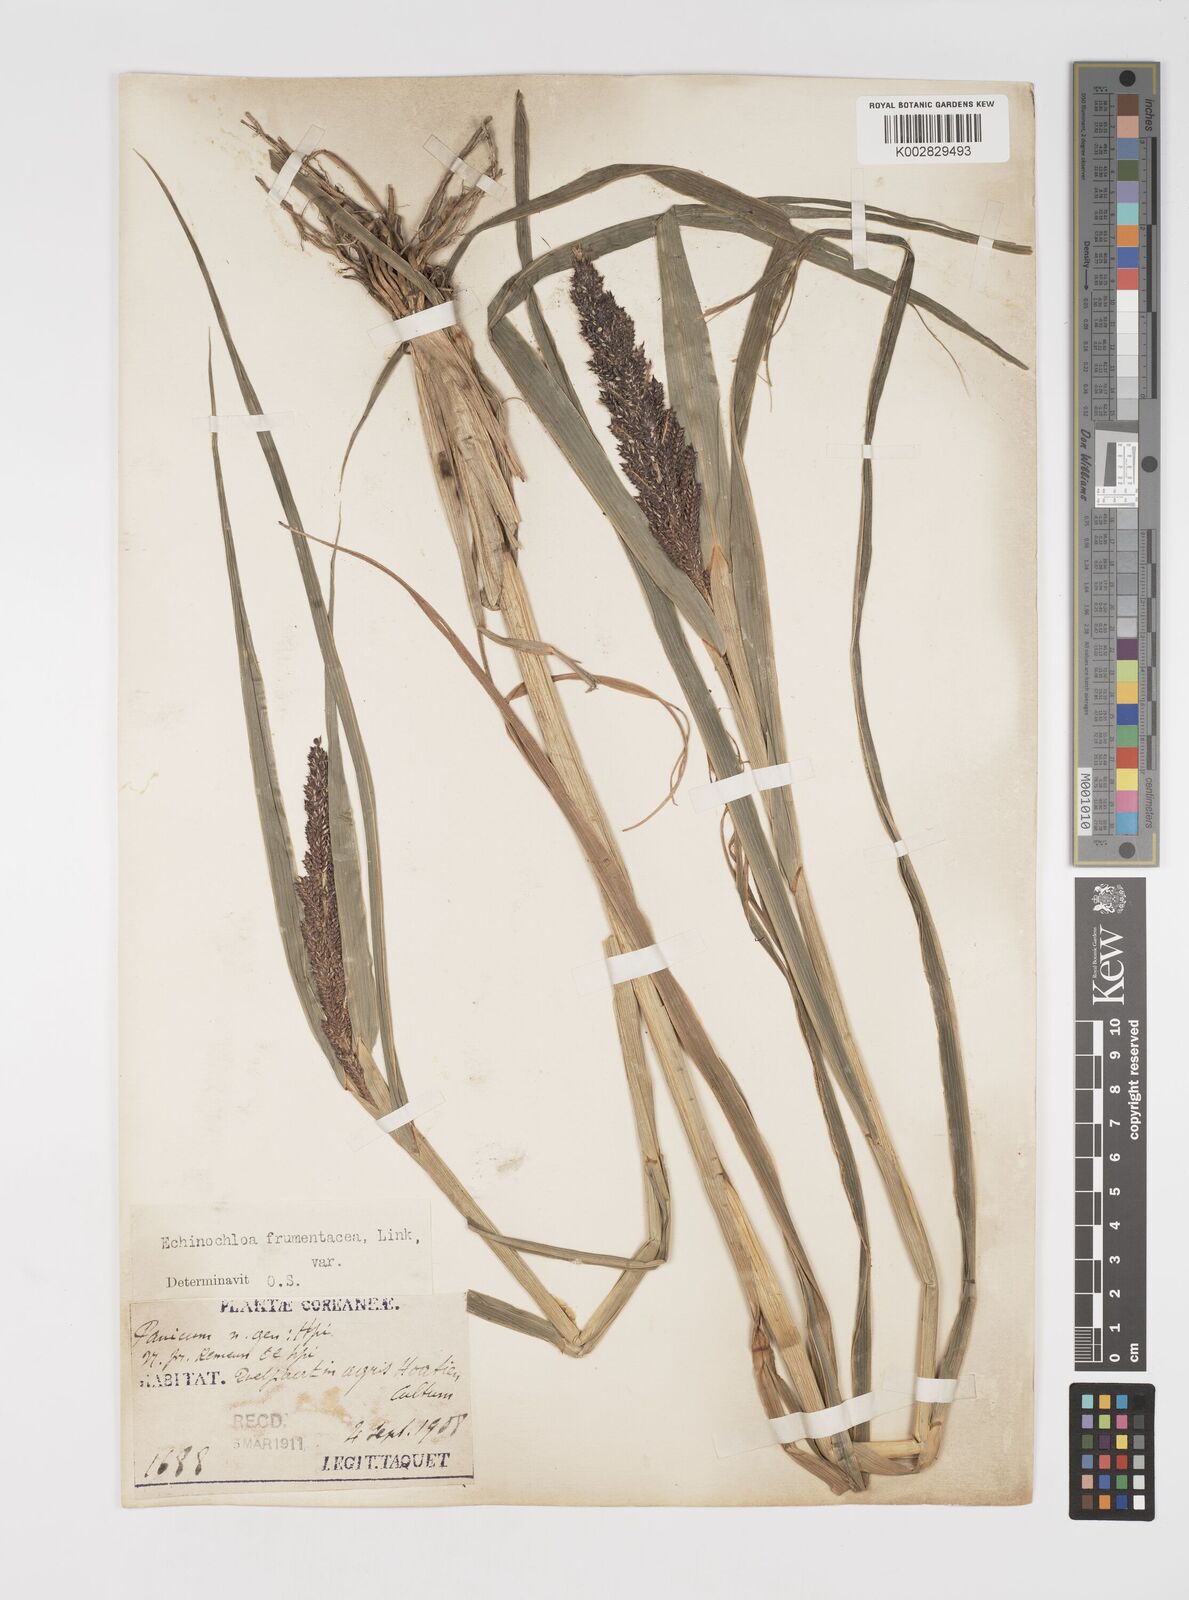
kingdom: Plantae
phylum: Tracheophyta
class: Liliopsida
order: Poales
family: Poaceae
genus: Echinochloa
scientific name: Echinochloa crus-galli
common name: Cockspur
